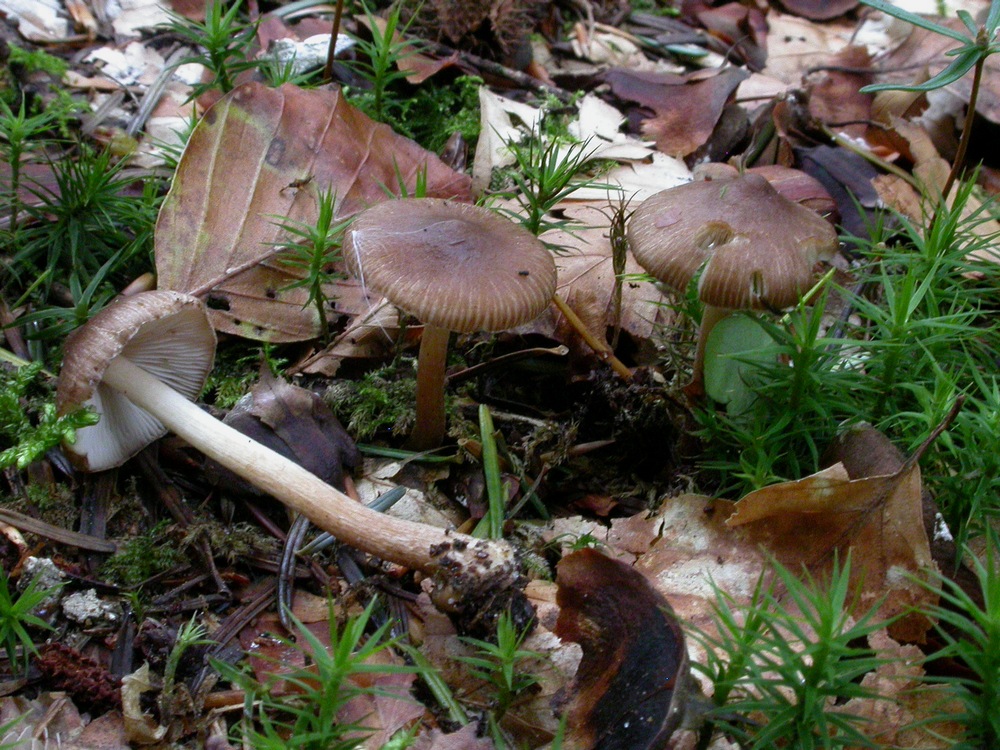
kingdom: Fungi
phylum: Basidiomycota
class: Agaricomycetes
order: Agaricales
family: Inocybaceae
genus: Inocybe
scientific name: Inocybe napipes
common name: roeknoldet trævlhat
